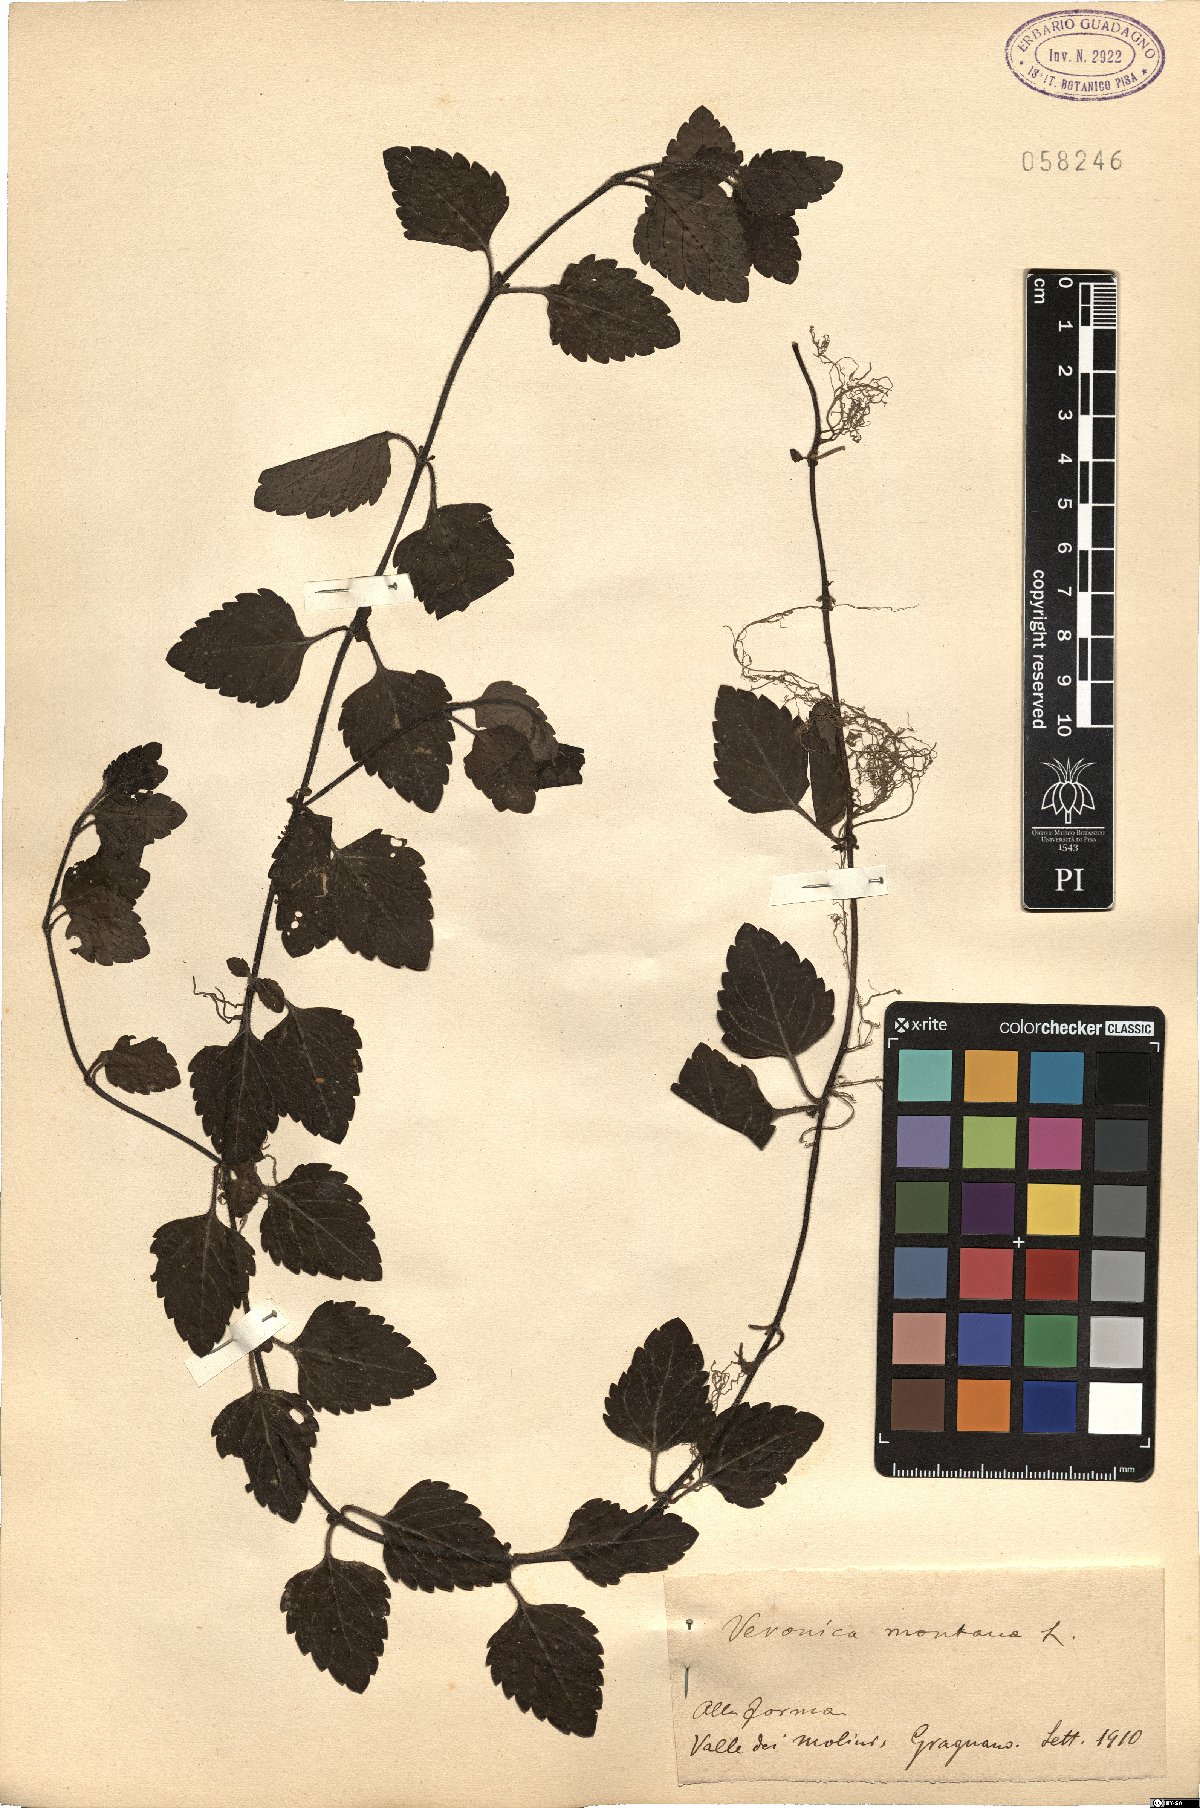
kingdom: Plantae
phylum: Tracheophyta
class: Magnoliopsida
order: Lamiales
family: Plantaginaceae
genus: Veronica
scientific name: Veronica montana
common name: Wood speedwell
